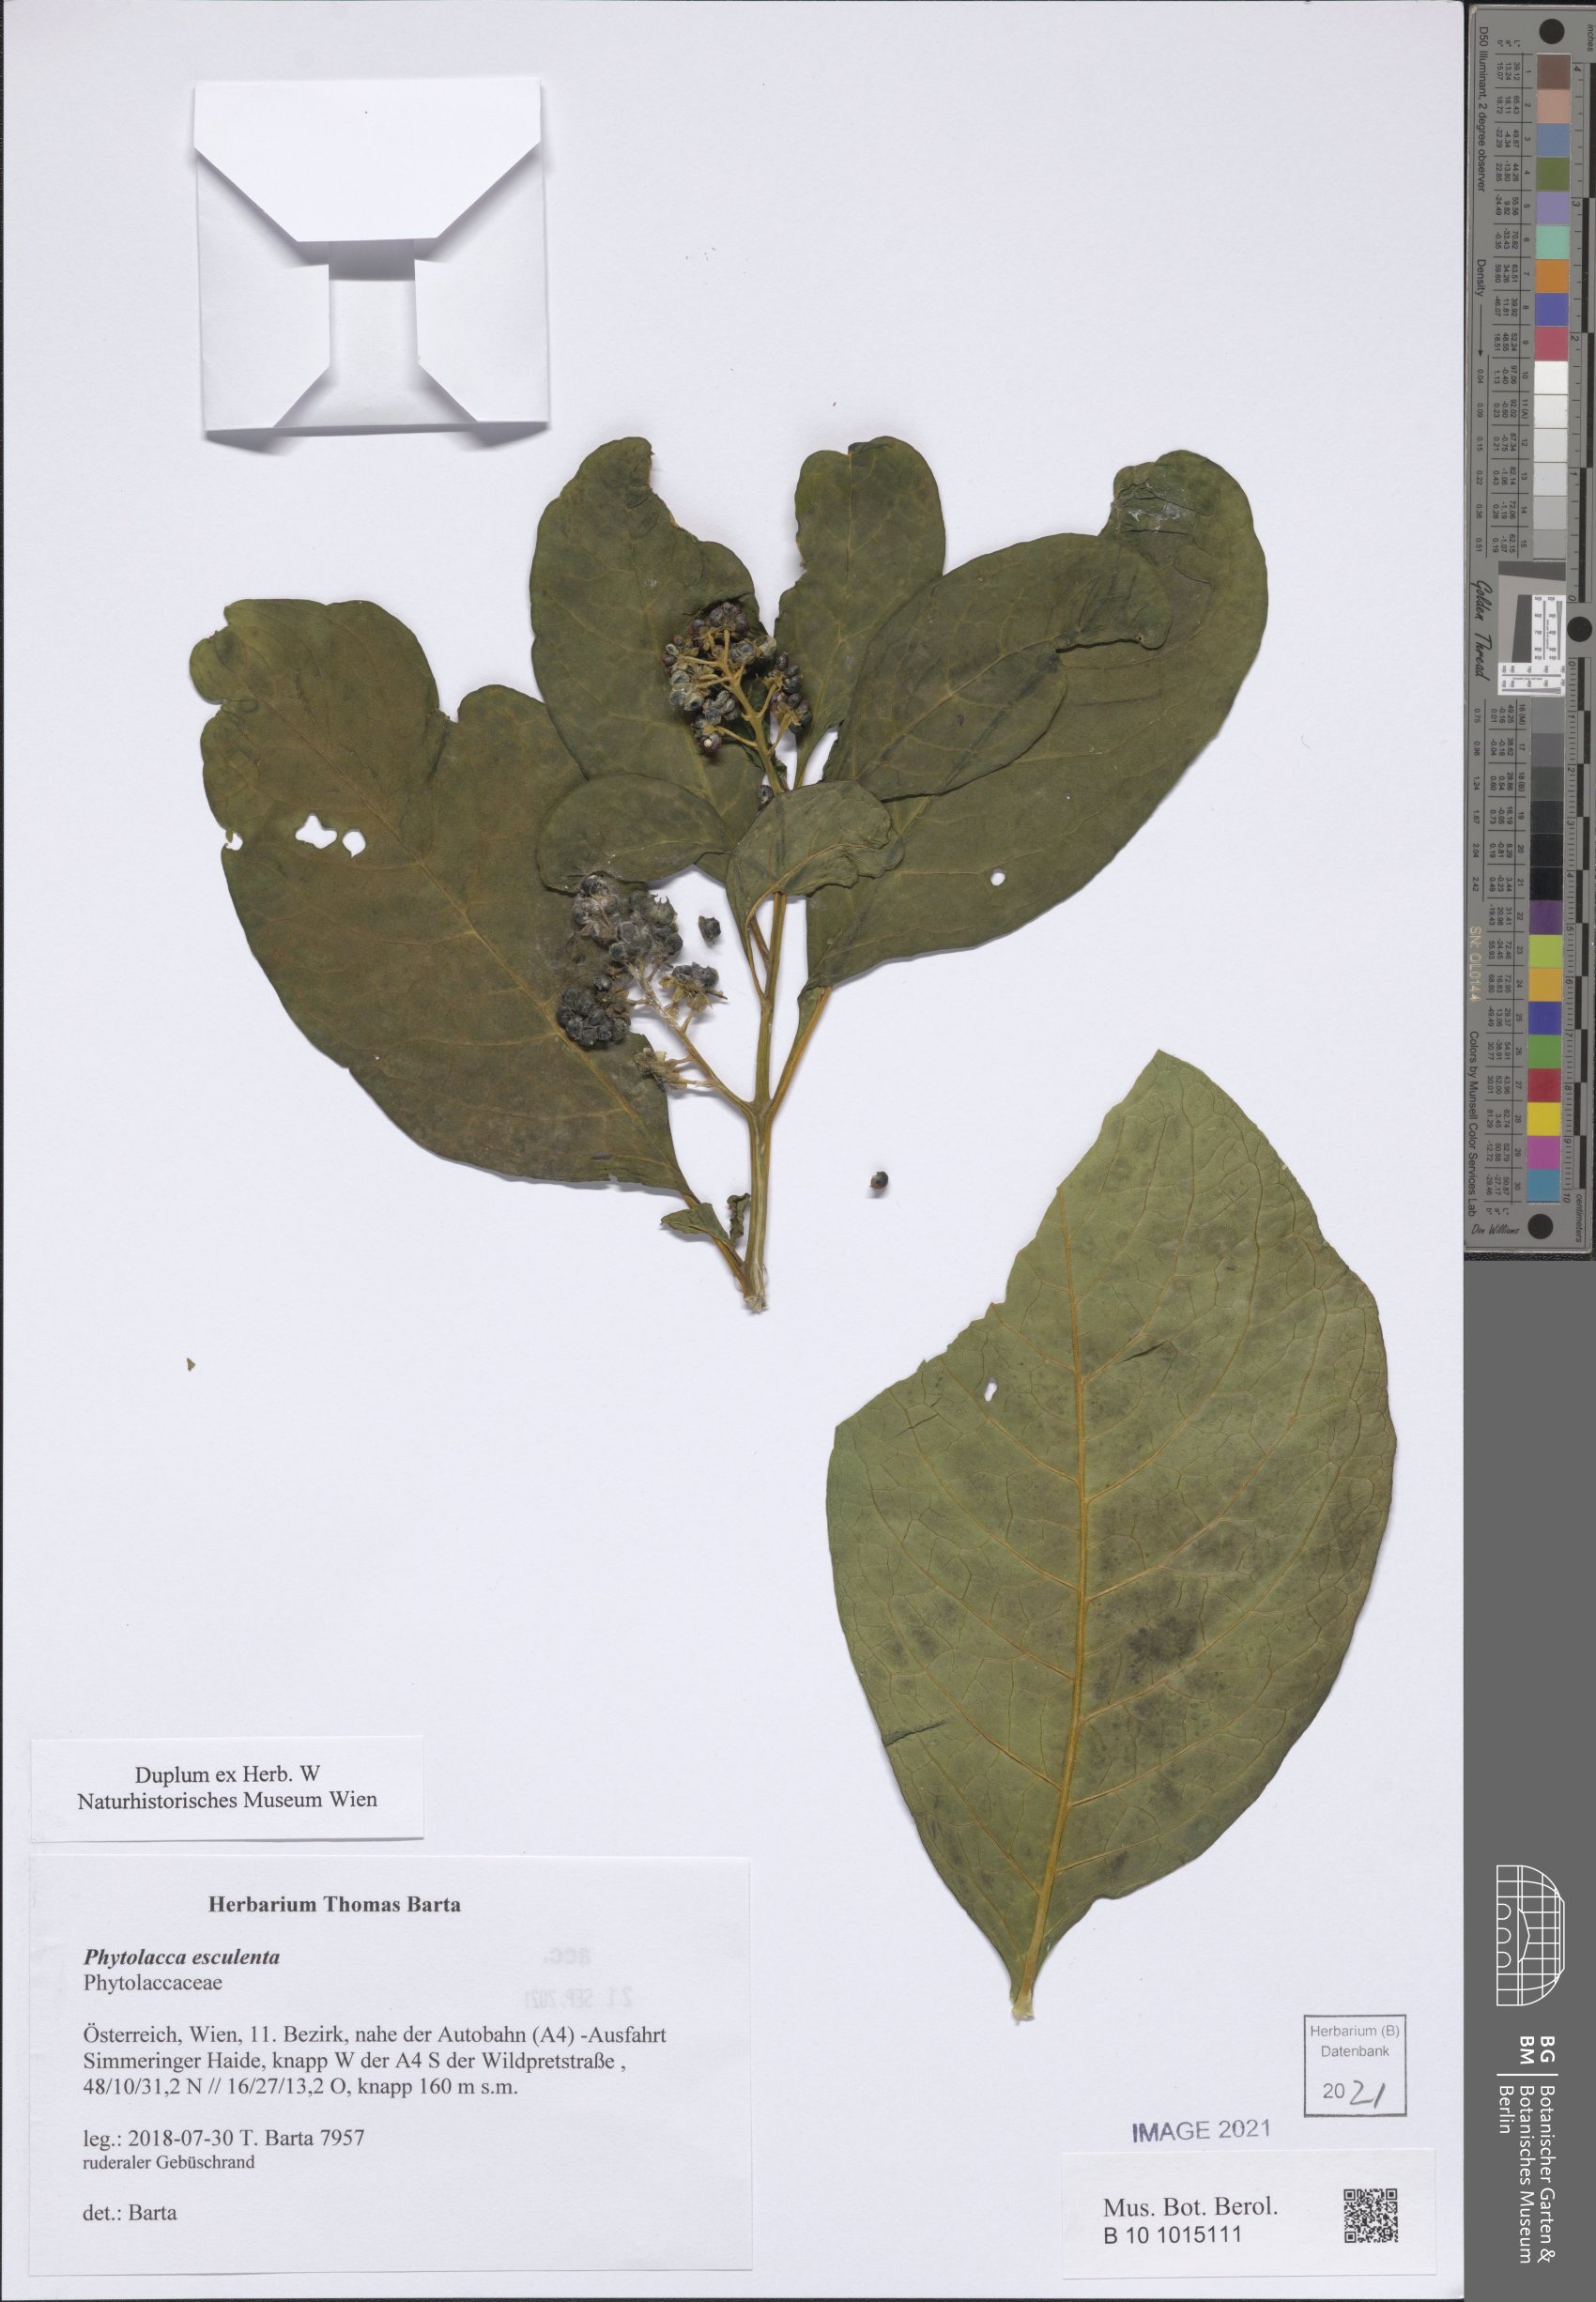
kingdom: Plantae
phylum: Tracheophyta
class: Magnoliopsida
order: Caryophyllales
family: Phytolaccaceae
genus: Phytolacca
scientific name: Phytolacca acinosa
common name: Indian pokeweed
